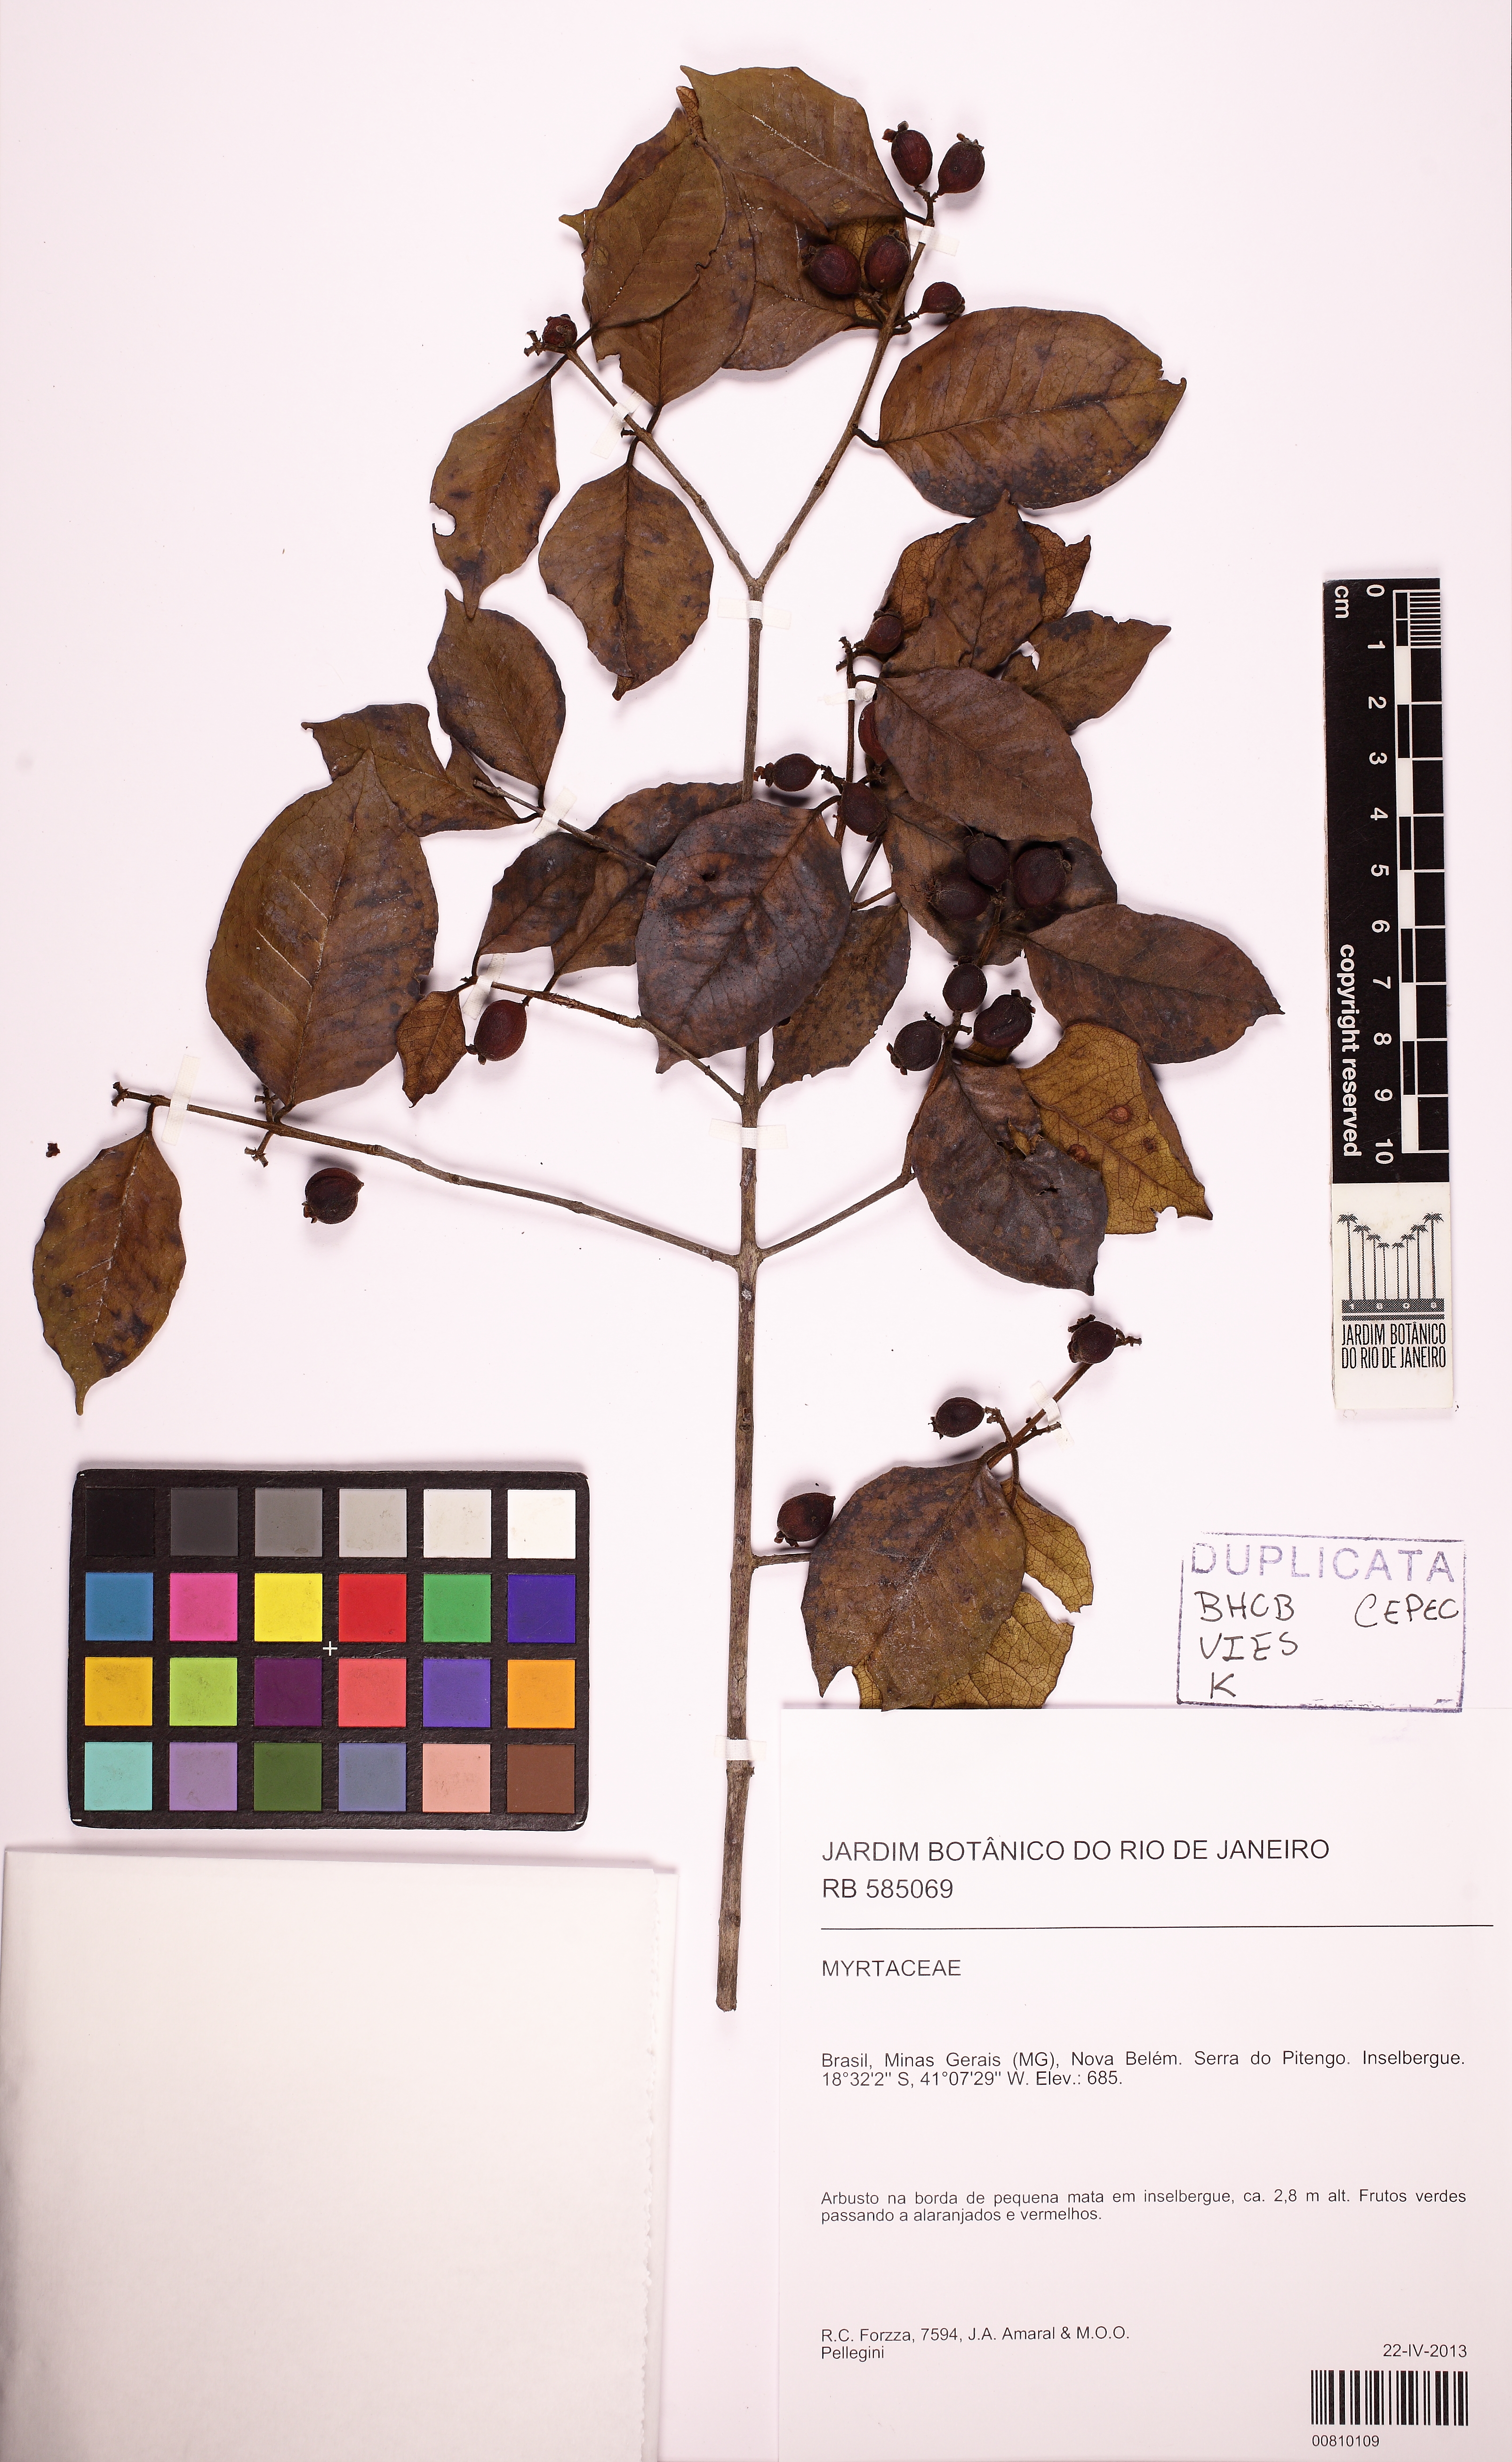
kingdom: Plantae
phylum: Tracheophyta
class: Magnoliopsida
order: Myrtales
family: Myrtaceae
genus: Eugenia
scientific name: Eugenia brejoensis
